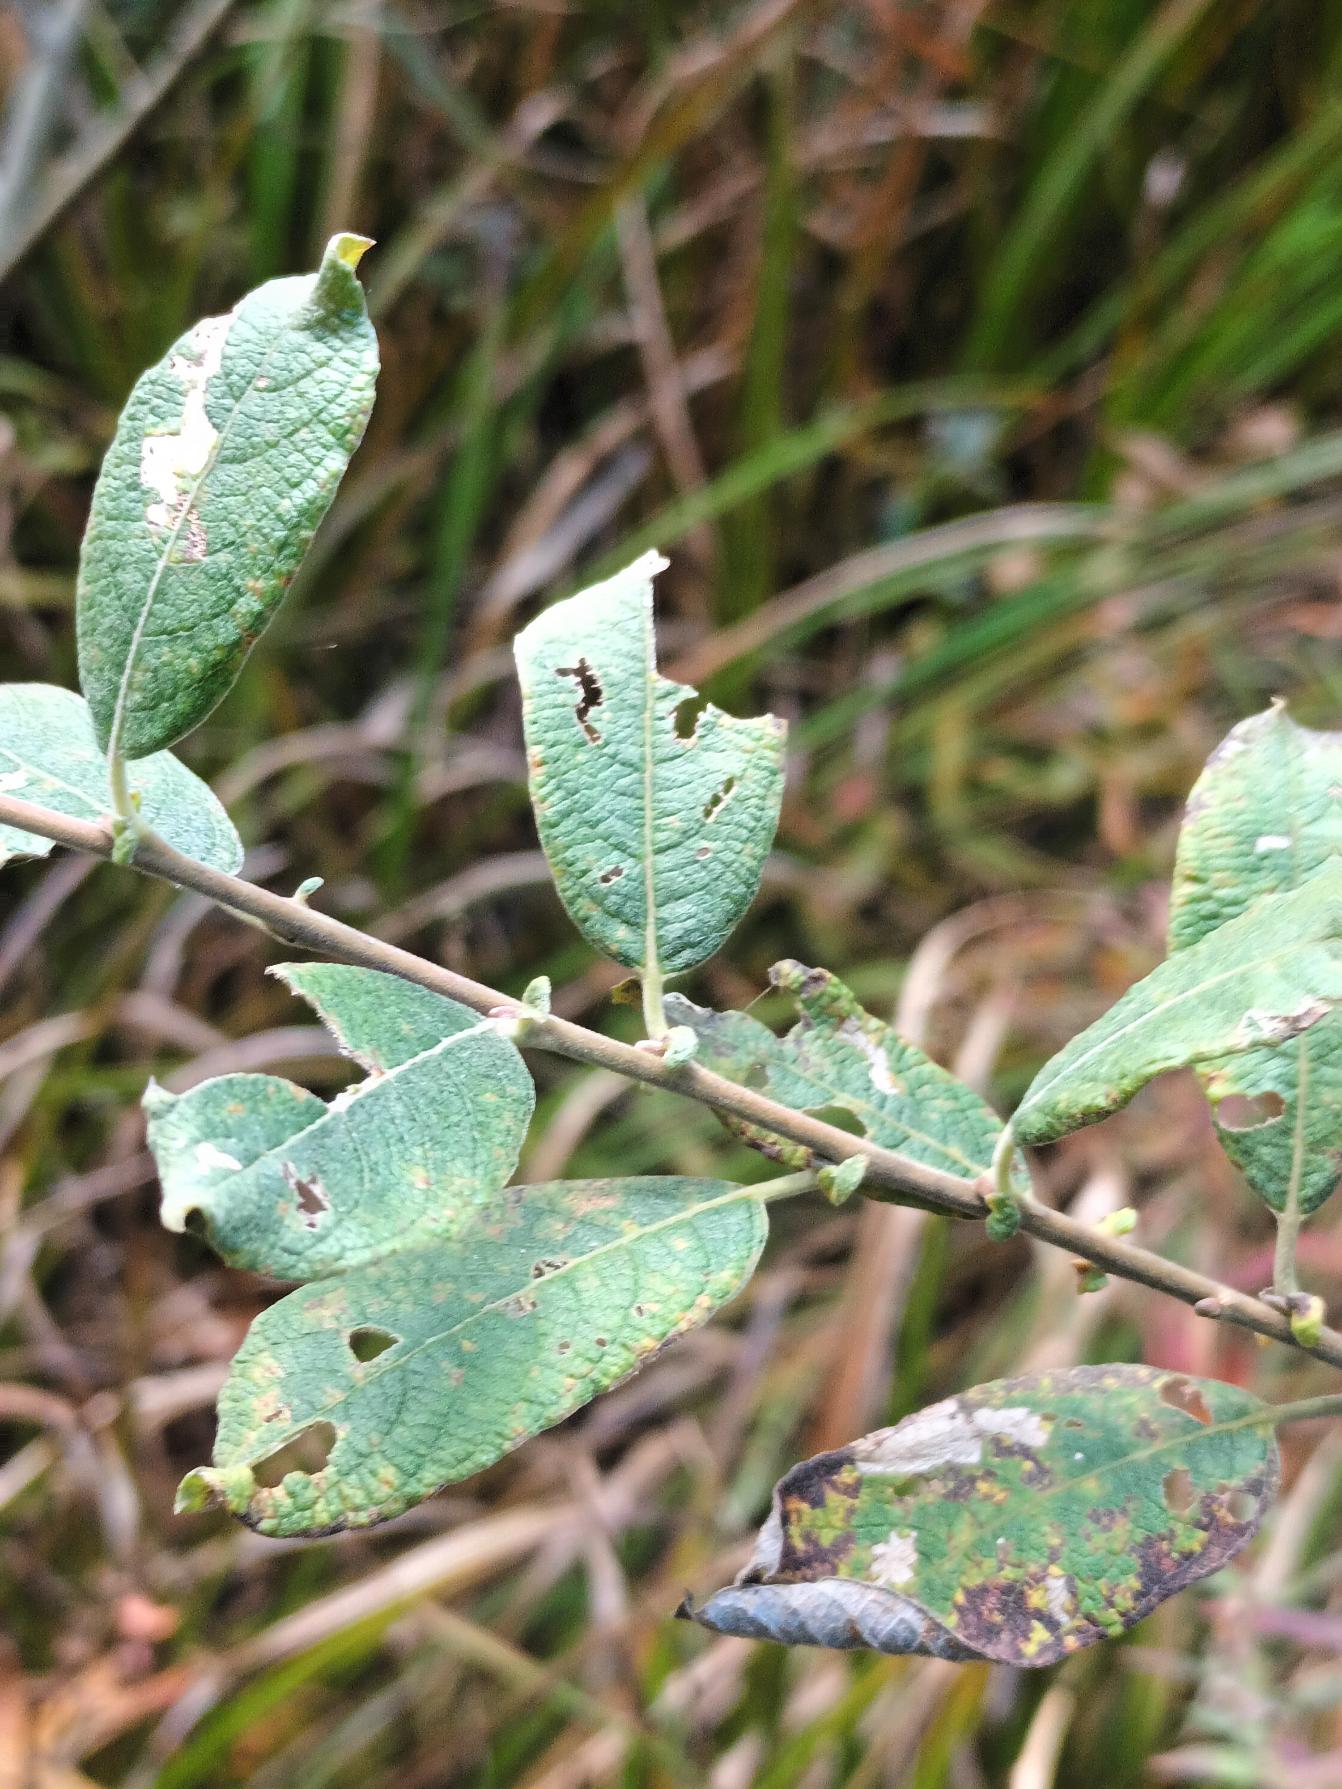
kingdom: Plantae
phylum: Tracheophyta
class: Magnoliopsida
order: Malpighiales
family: Salicaceae
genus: Salix
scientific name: Salix aurita
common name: Øret pil
